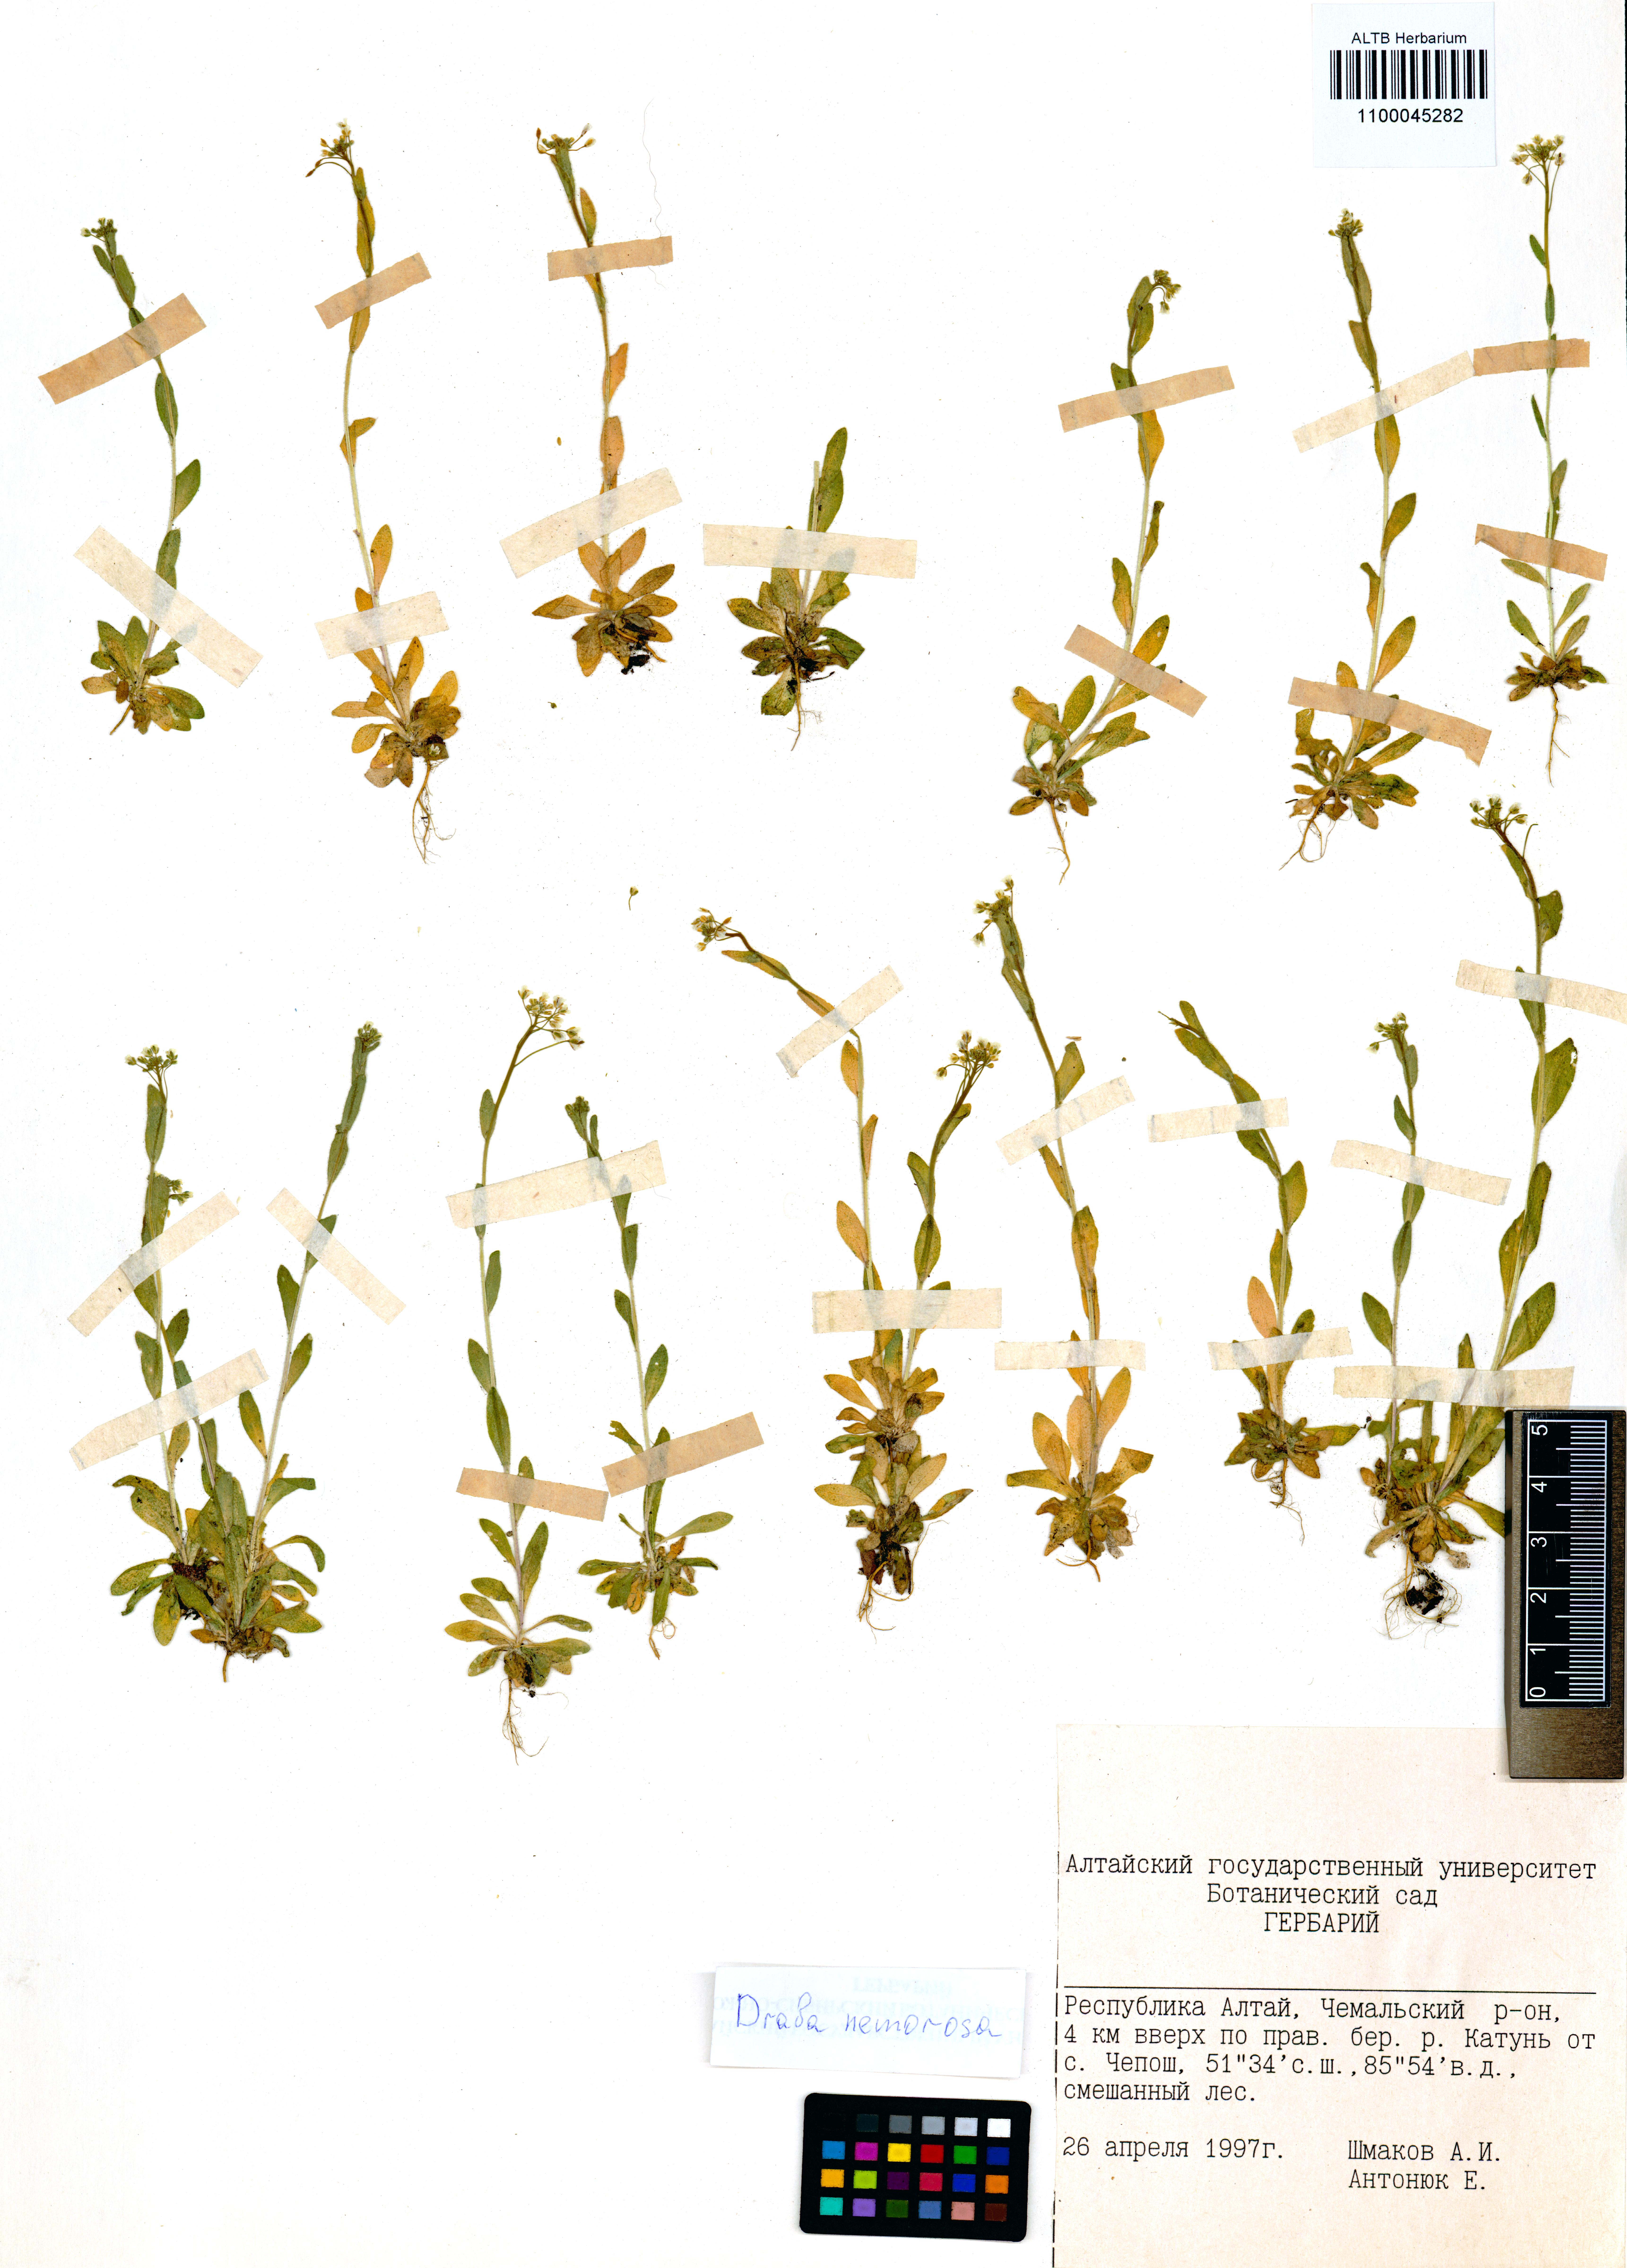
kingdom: Plantae
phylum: Tracheophyta
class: Magnoliopsida
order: Brassicales
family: Brassicaceae
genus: Draba
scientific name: Draba nemorosa
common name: Wood whitlow-grass
